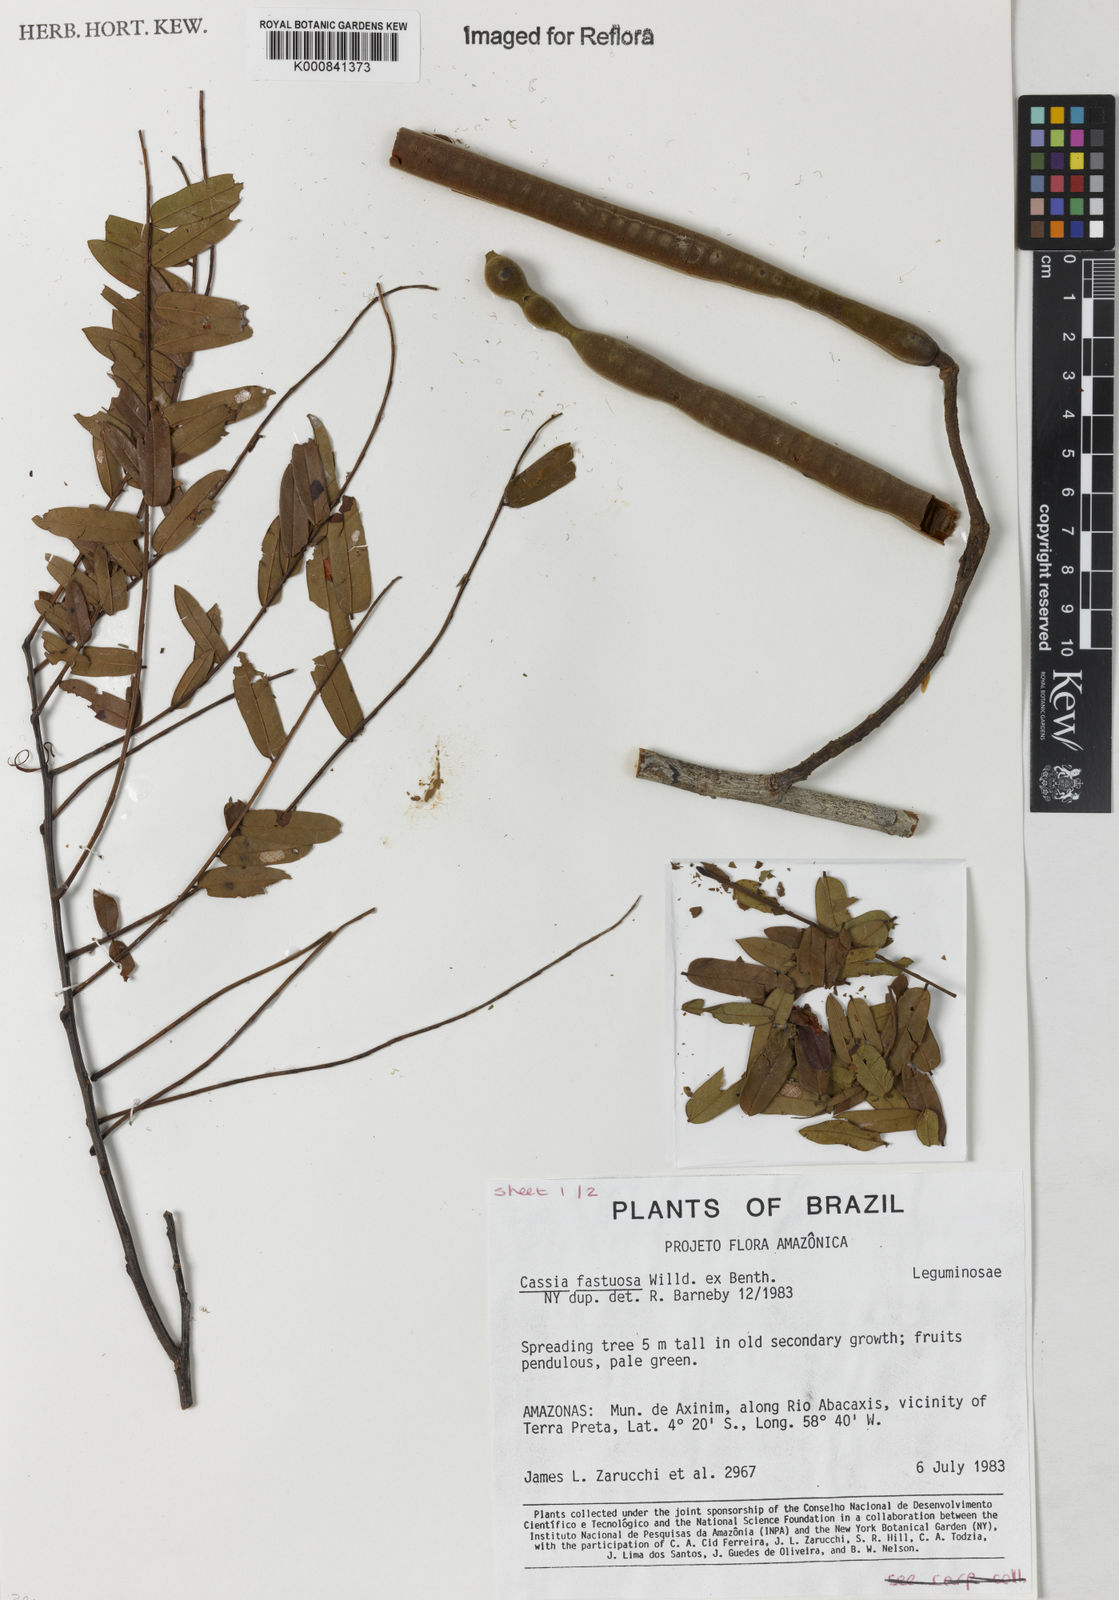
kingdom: Plantae
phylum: Tracheophyta
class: Magnoliopsida
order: Fabales
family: Fabaceae
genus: Cassia
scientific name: Cassia
